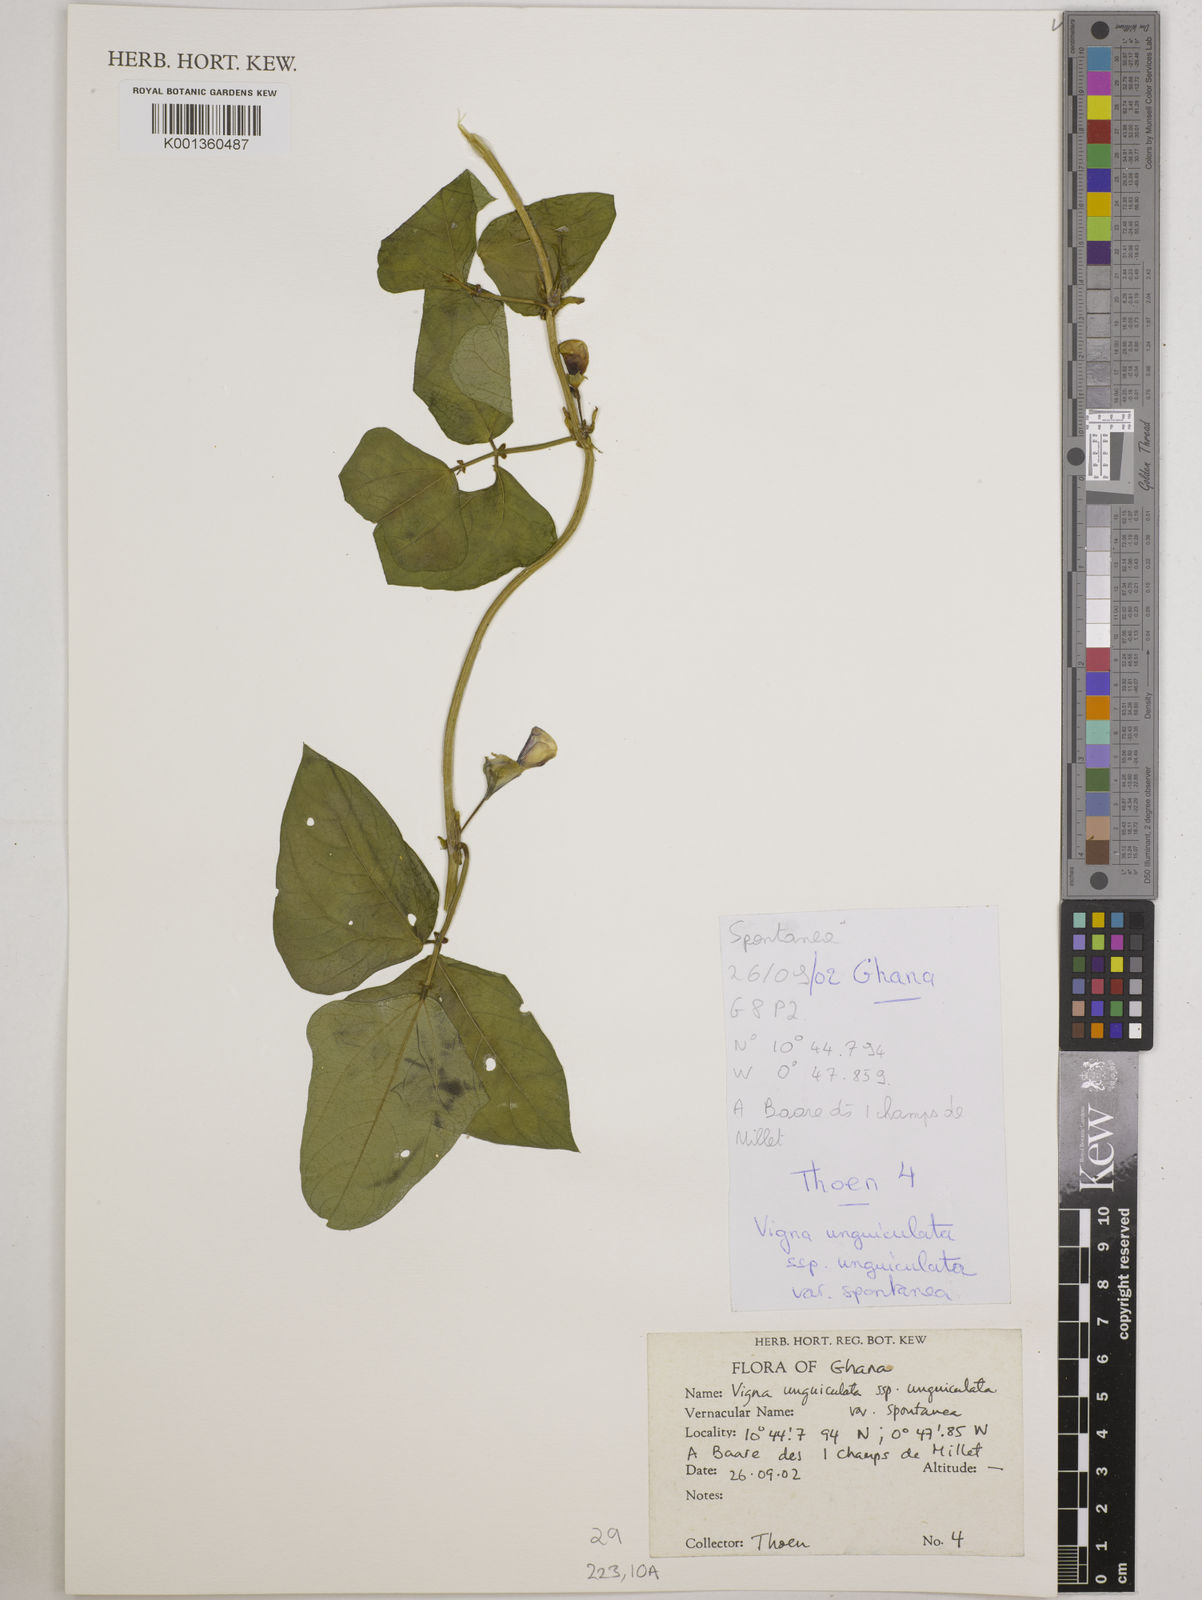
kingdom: Plantae
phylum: Tracheophyta
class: Magnoliopsida
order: Fabales
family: Fabaceae
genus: Vigna
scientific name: Vigna unguiculata
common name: Cowpea
